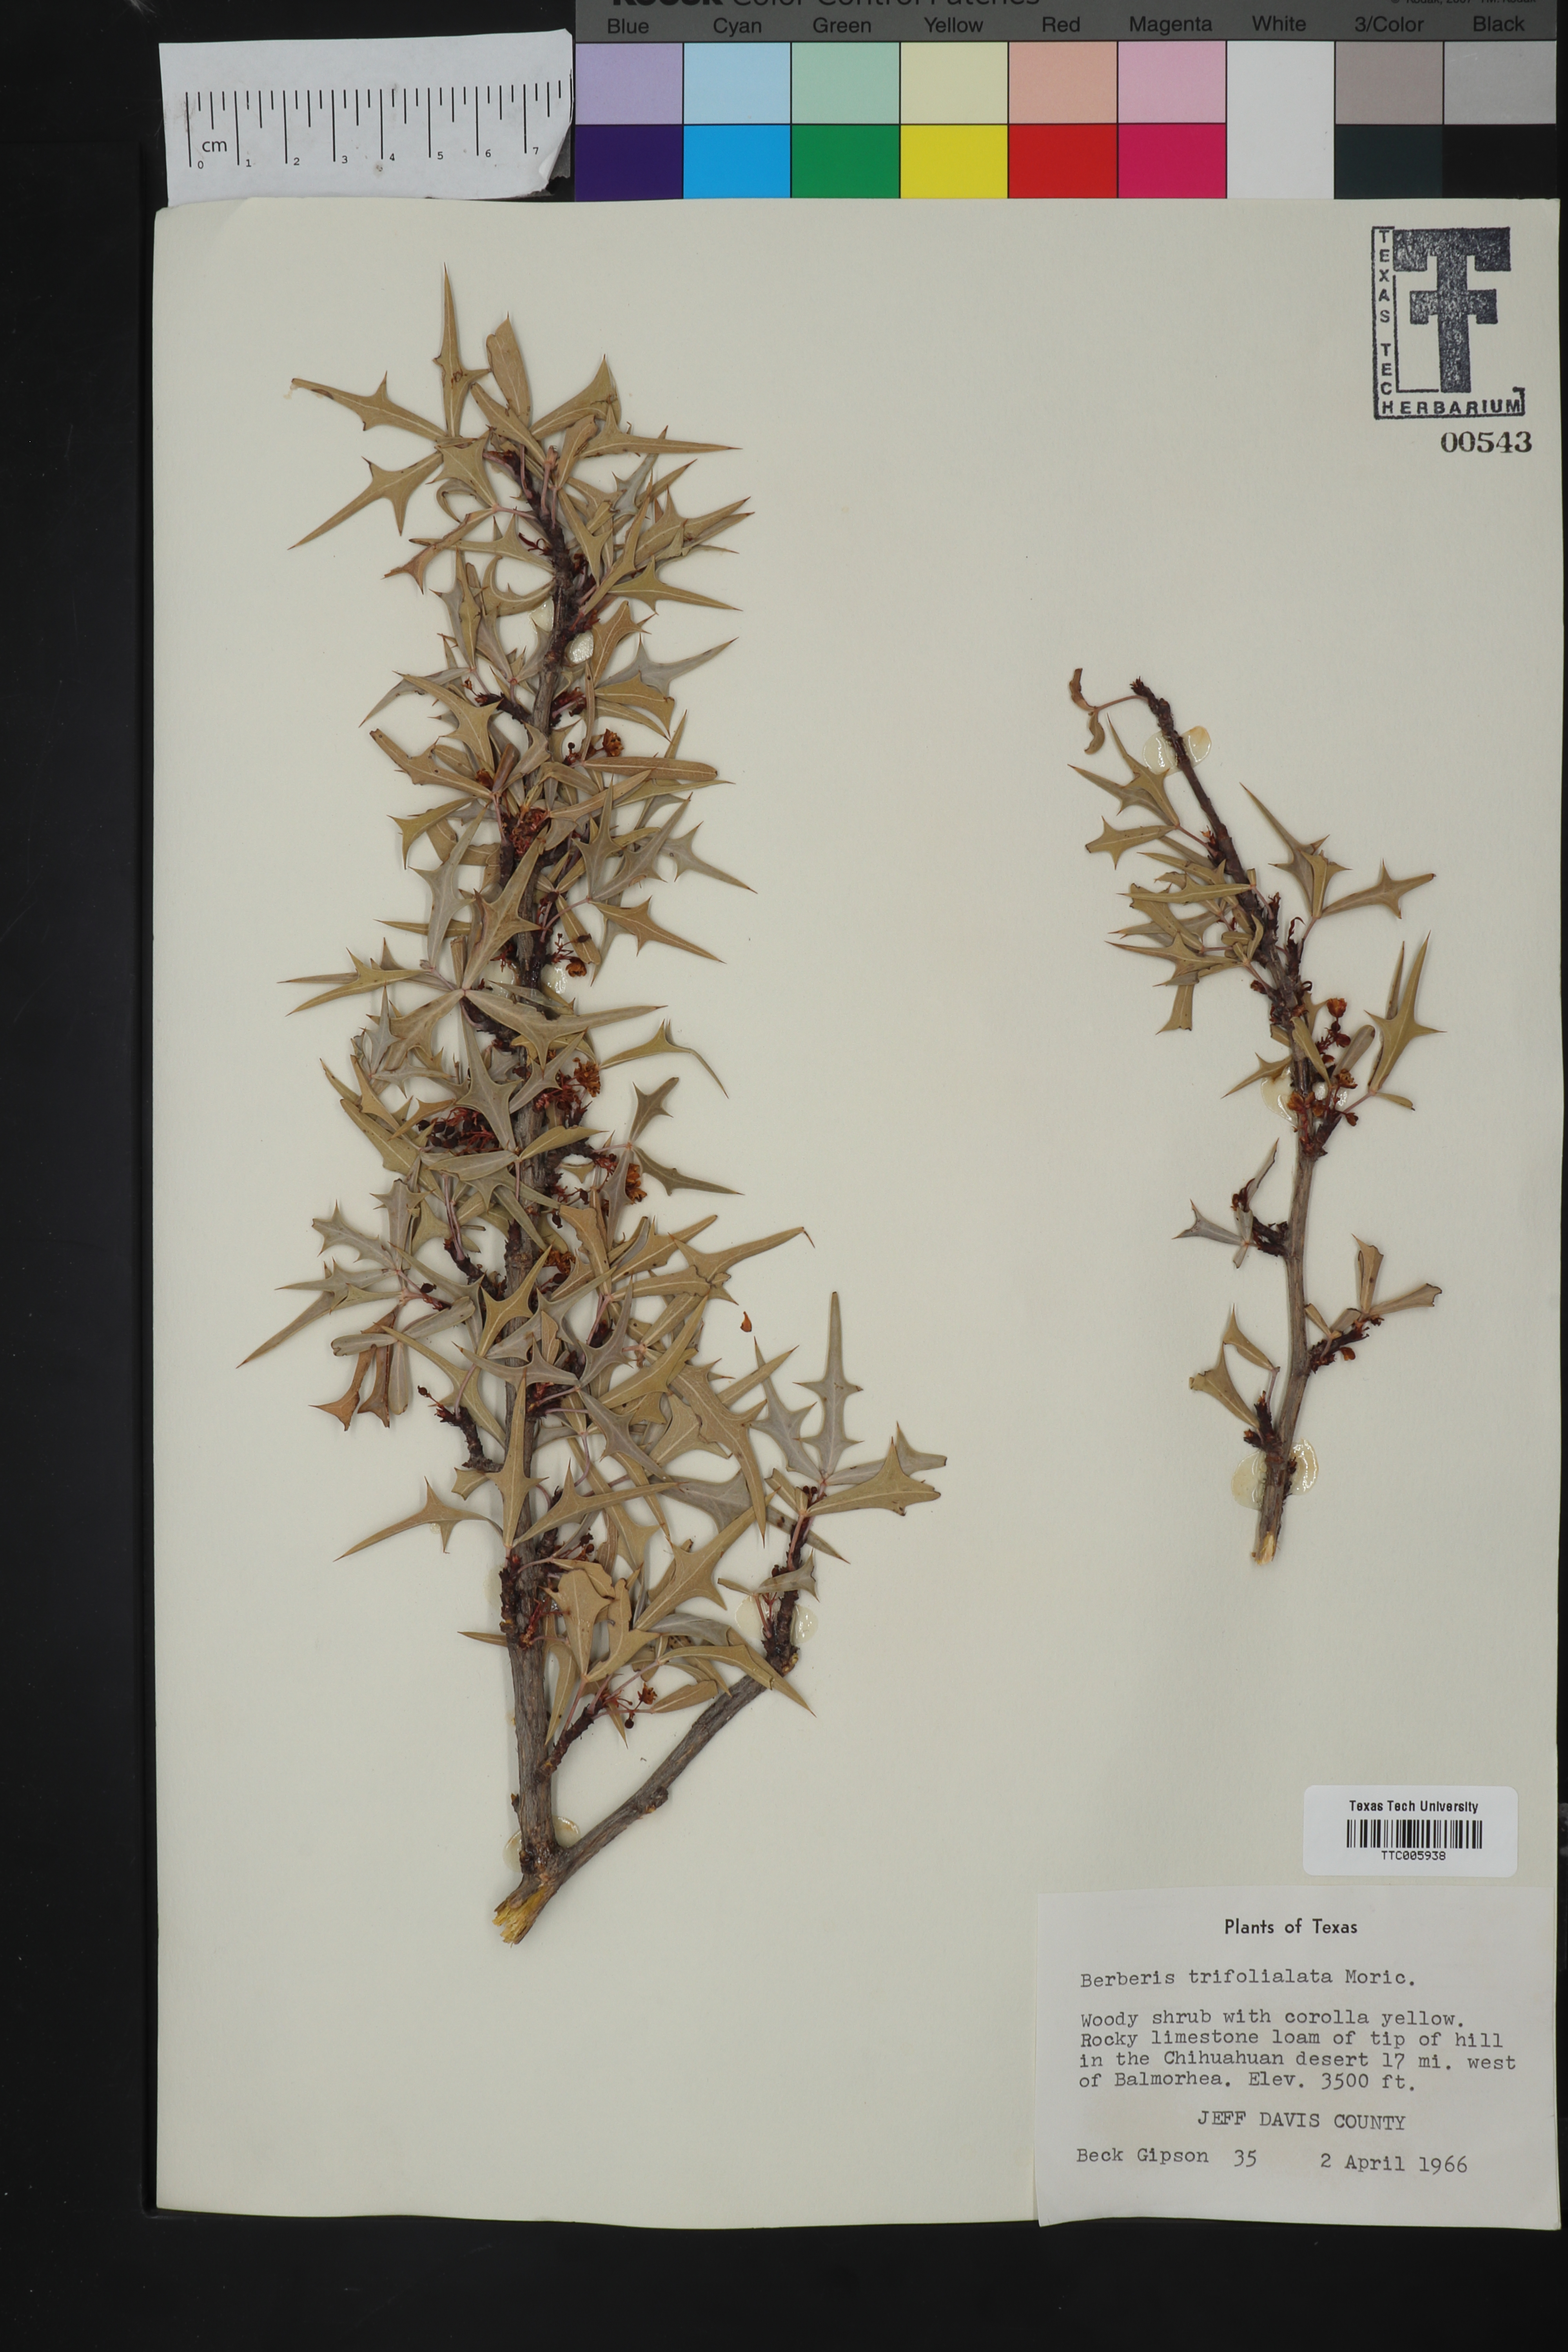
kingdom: Plantae
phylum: Tracheophyta
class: Magnoliopsida
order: Ranunculales
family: Berberidaceae
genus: Alloberberis
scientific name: Alloberberis trifoliolata
